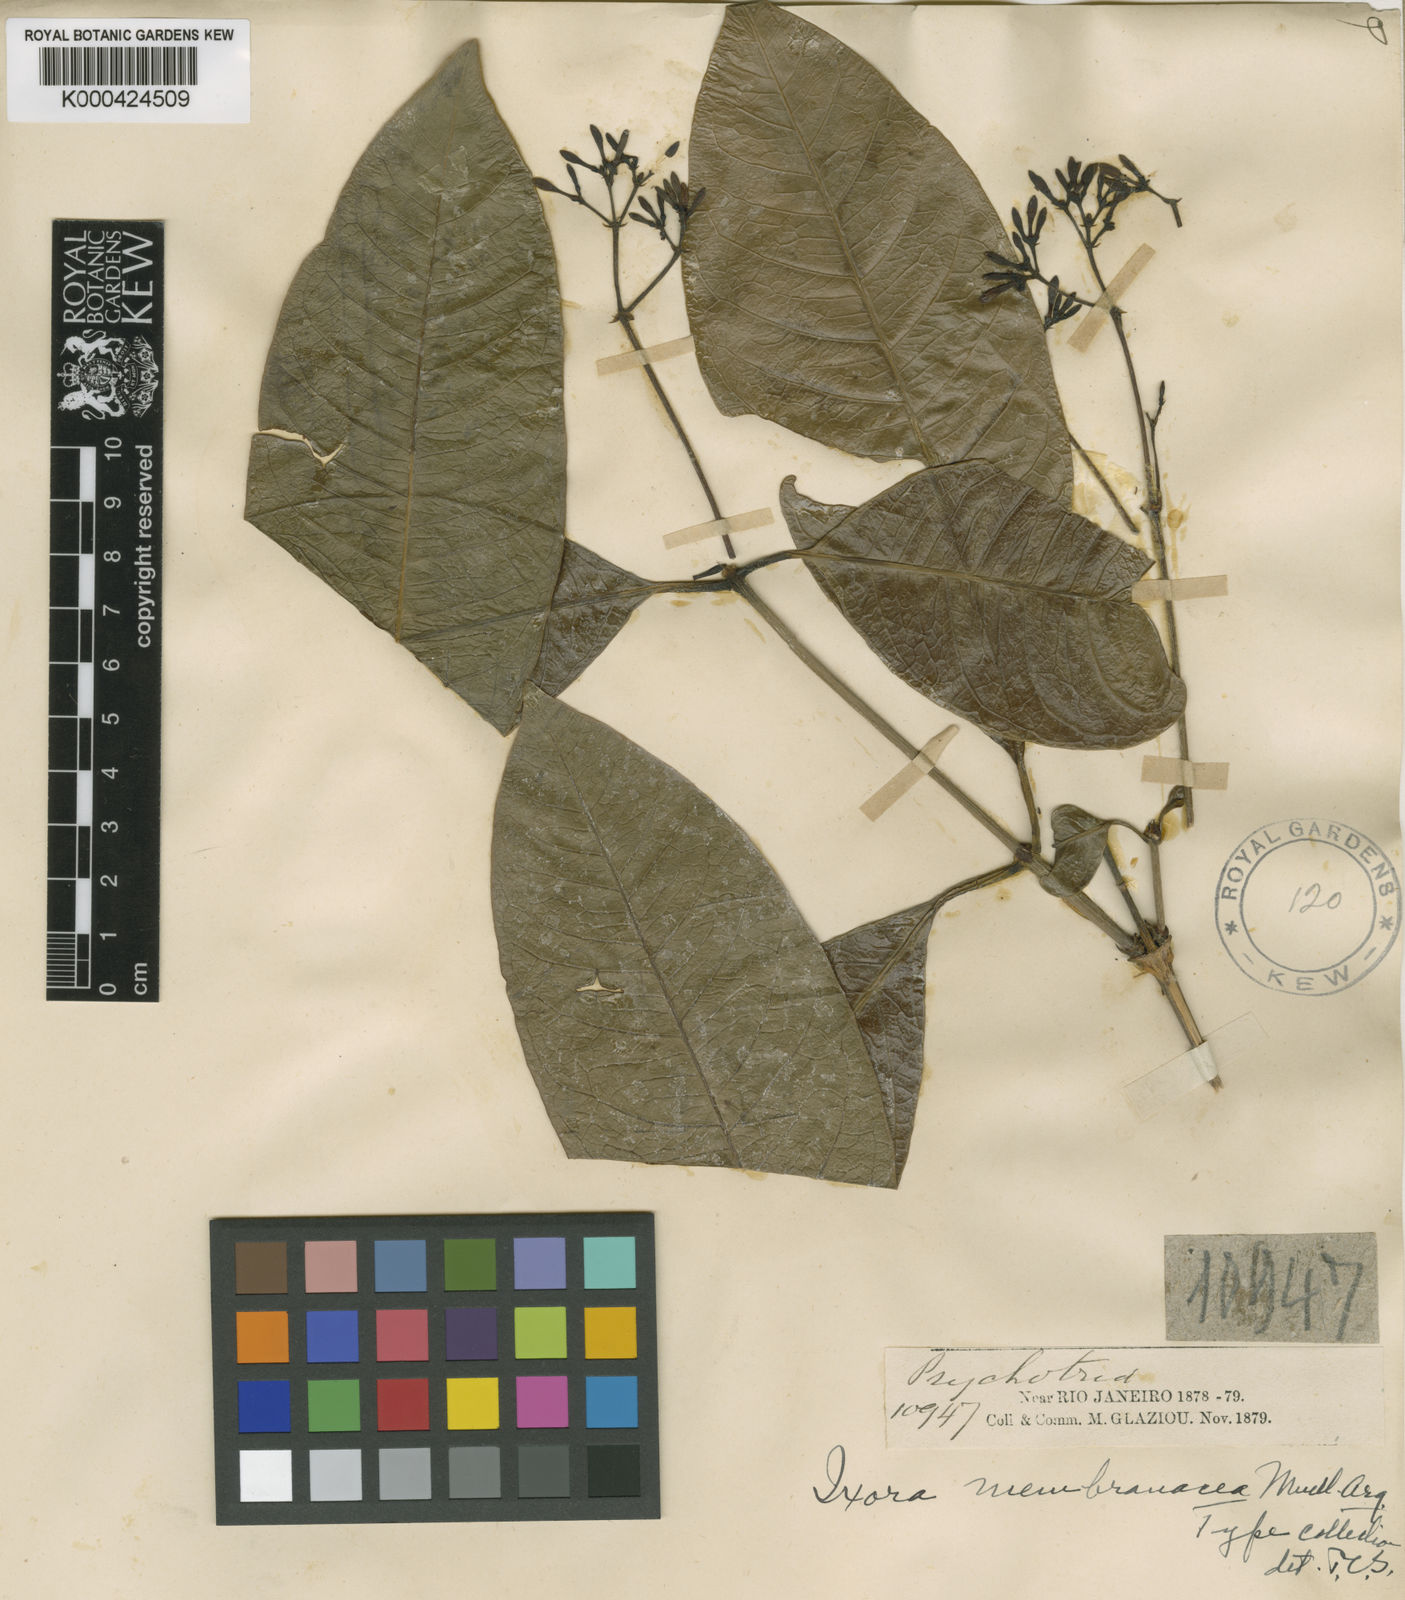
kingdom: Plantae
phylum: Tracheophyta
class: Magnoliopsida
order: Gentianales
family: Rubiaceae
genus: Ixora
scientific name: Ixora
